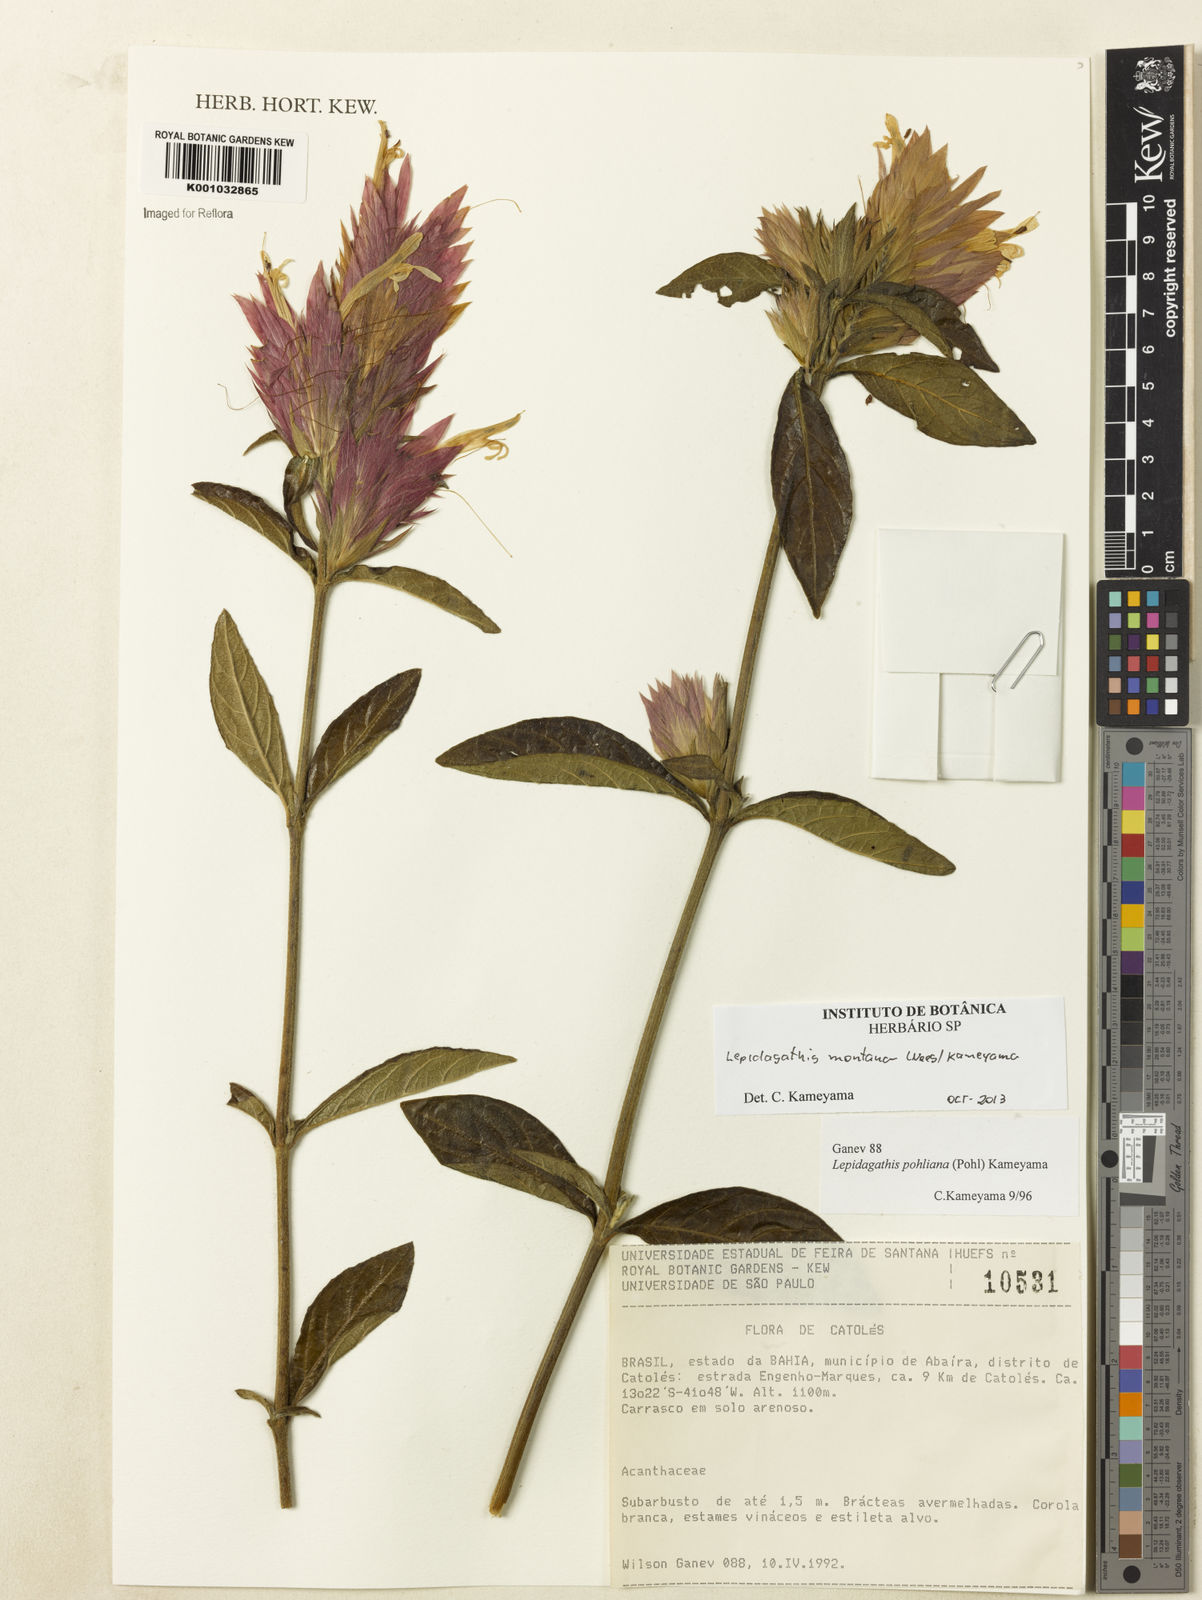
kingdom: Plantae
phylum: Tracheophyta
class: Magnoliopsida
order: Lamiales
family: Acanthaceae
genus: Lepidagathis
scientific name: Lepidagathis montana
